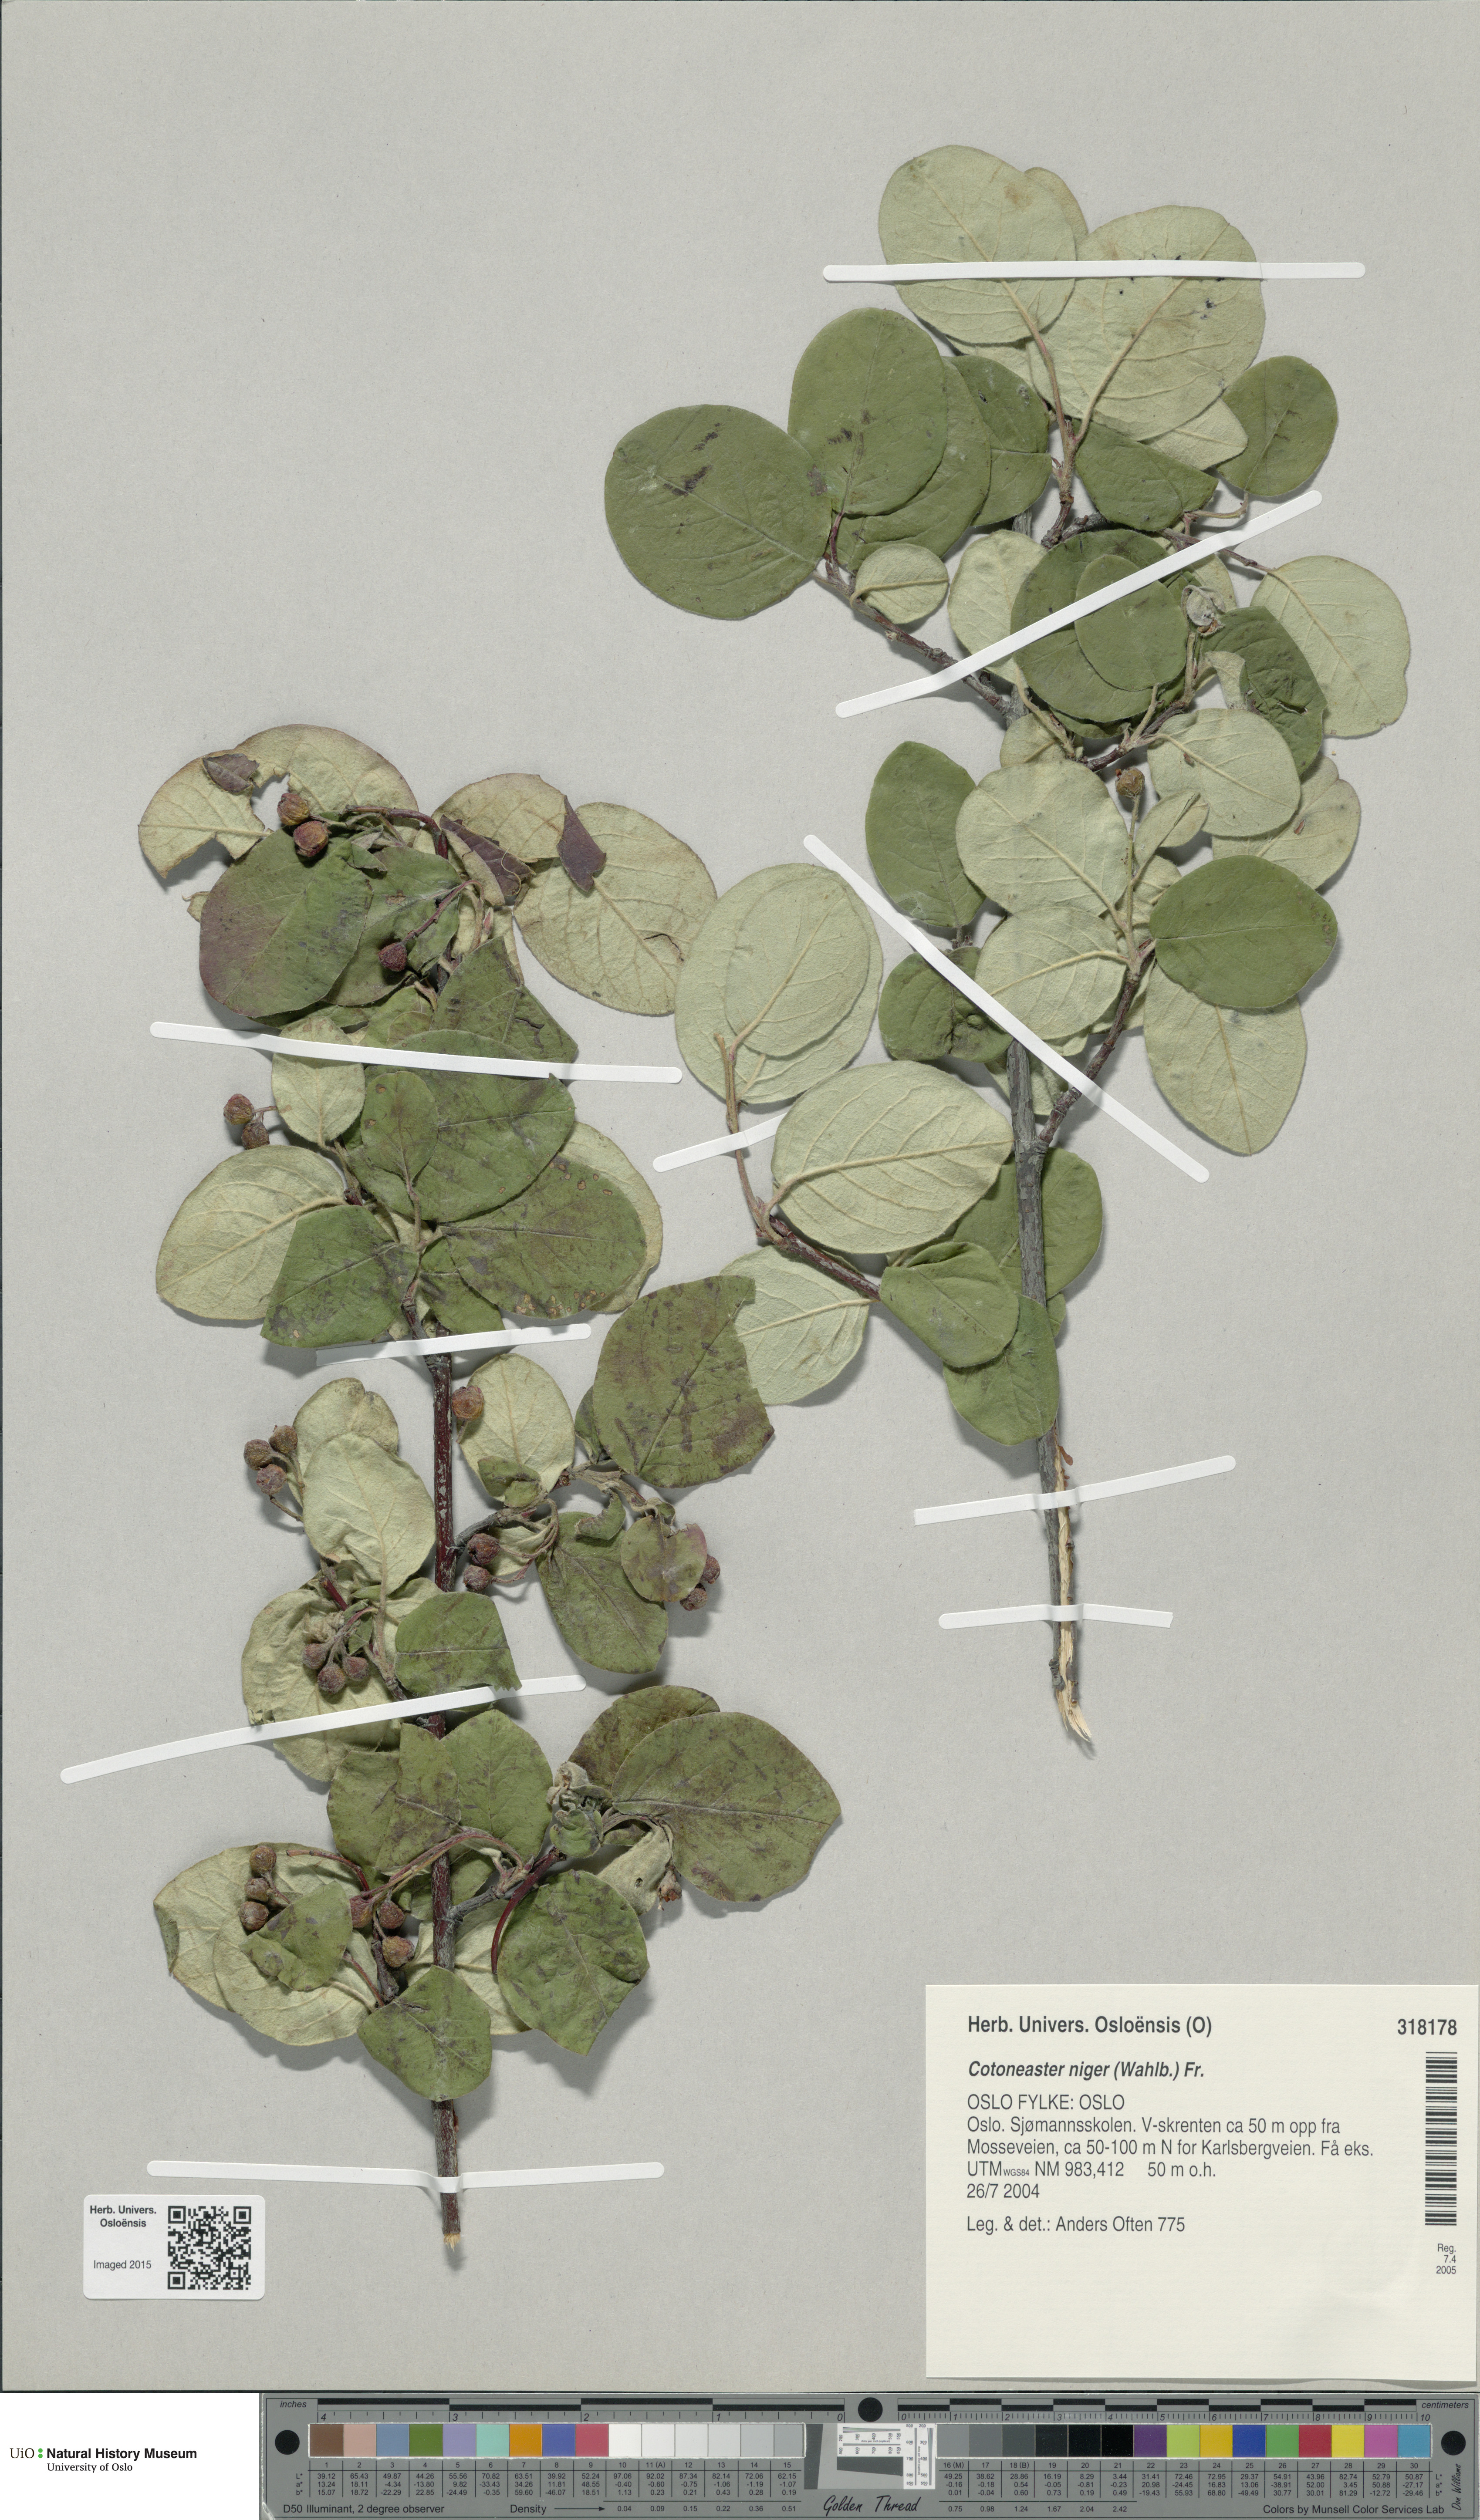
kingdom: Plantae
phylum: Tracheophyta
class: Magnoliopsida
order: Rosales
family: Rosaceae
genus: Cotoneaster
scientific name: Cotoneaster niger
